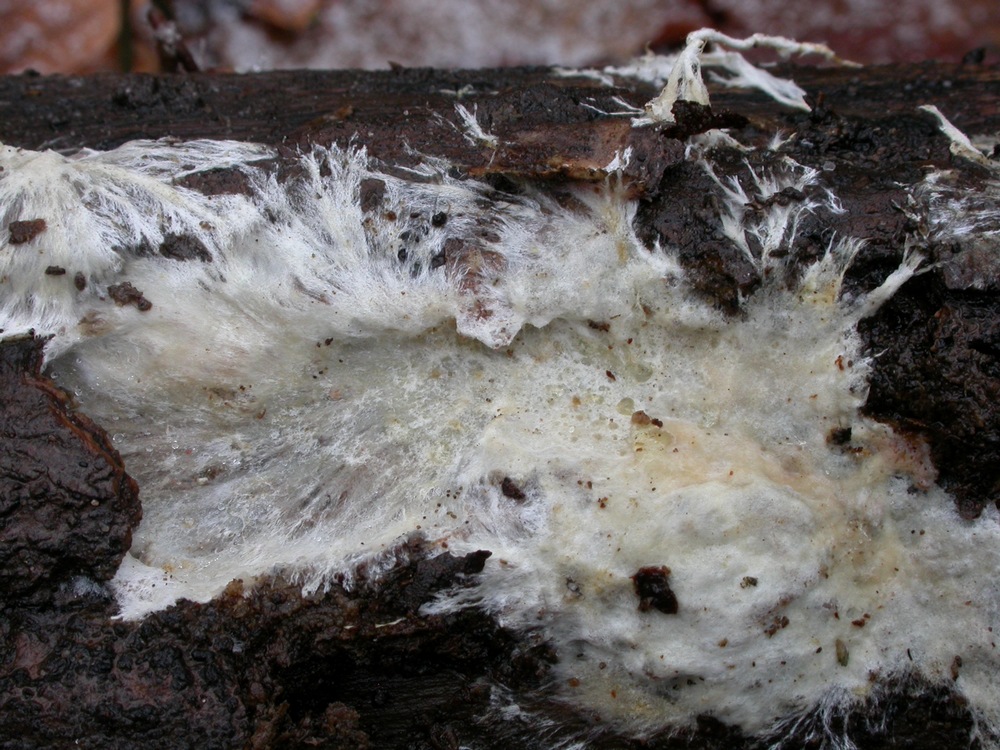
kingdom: Fungi
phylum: Basidiomycota
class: Agaricomycetes
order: Polyporales
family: Phanerochaetaceae
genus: Phanerochaete
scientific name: Phanerochaete velutina
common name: dunet randtråd
